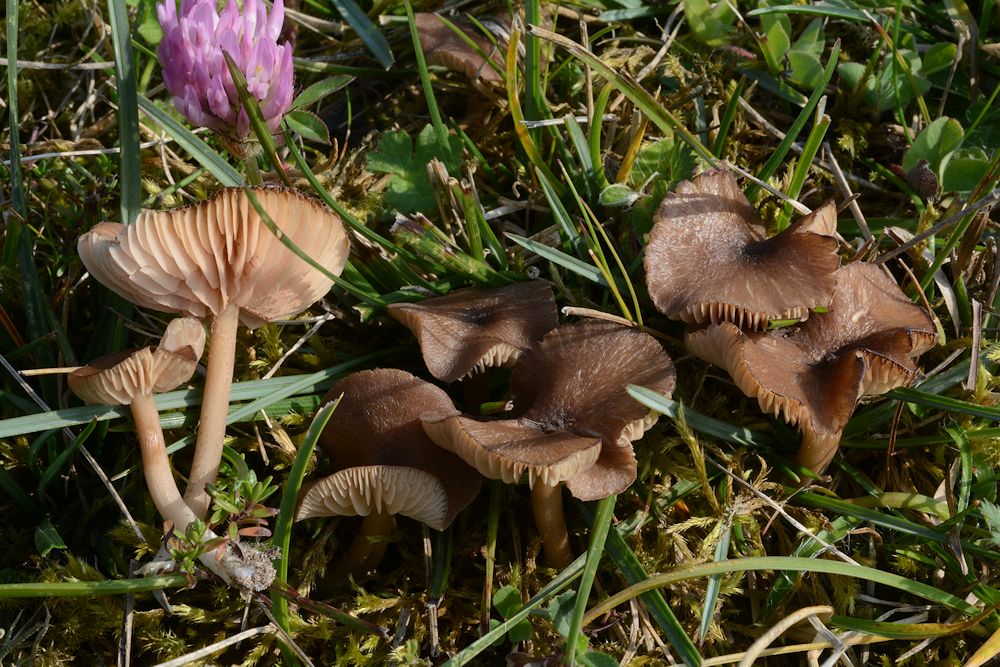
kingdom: Fungi
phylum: Basidiomycota
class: Agaricomycetes
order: Agaricales
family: Entolomataceae
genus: Entoloma
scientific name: Entoloma riparium
